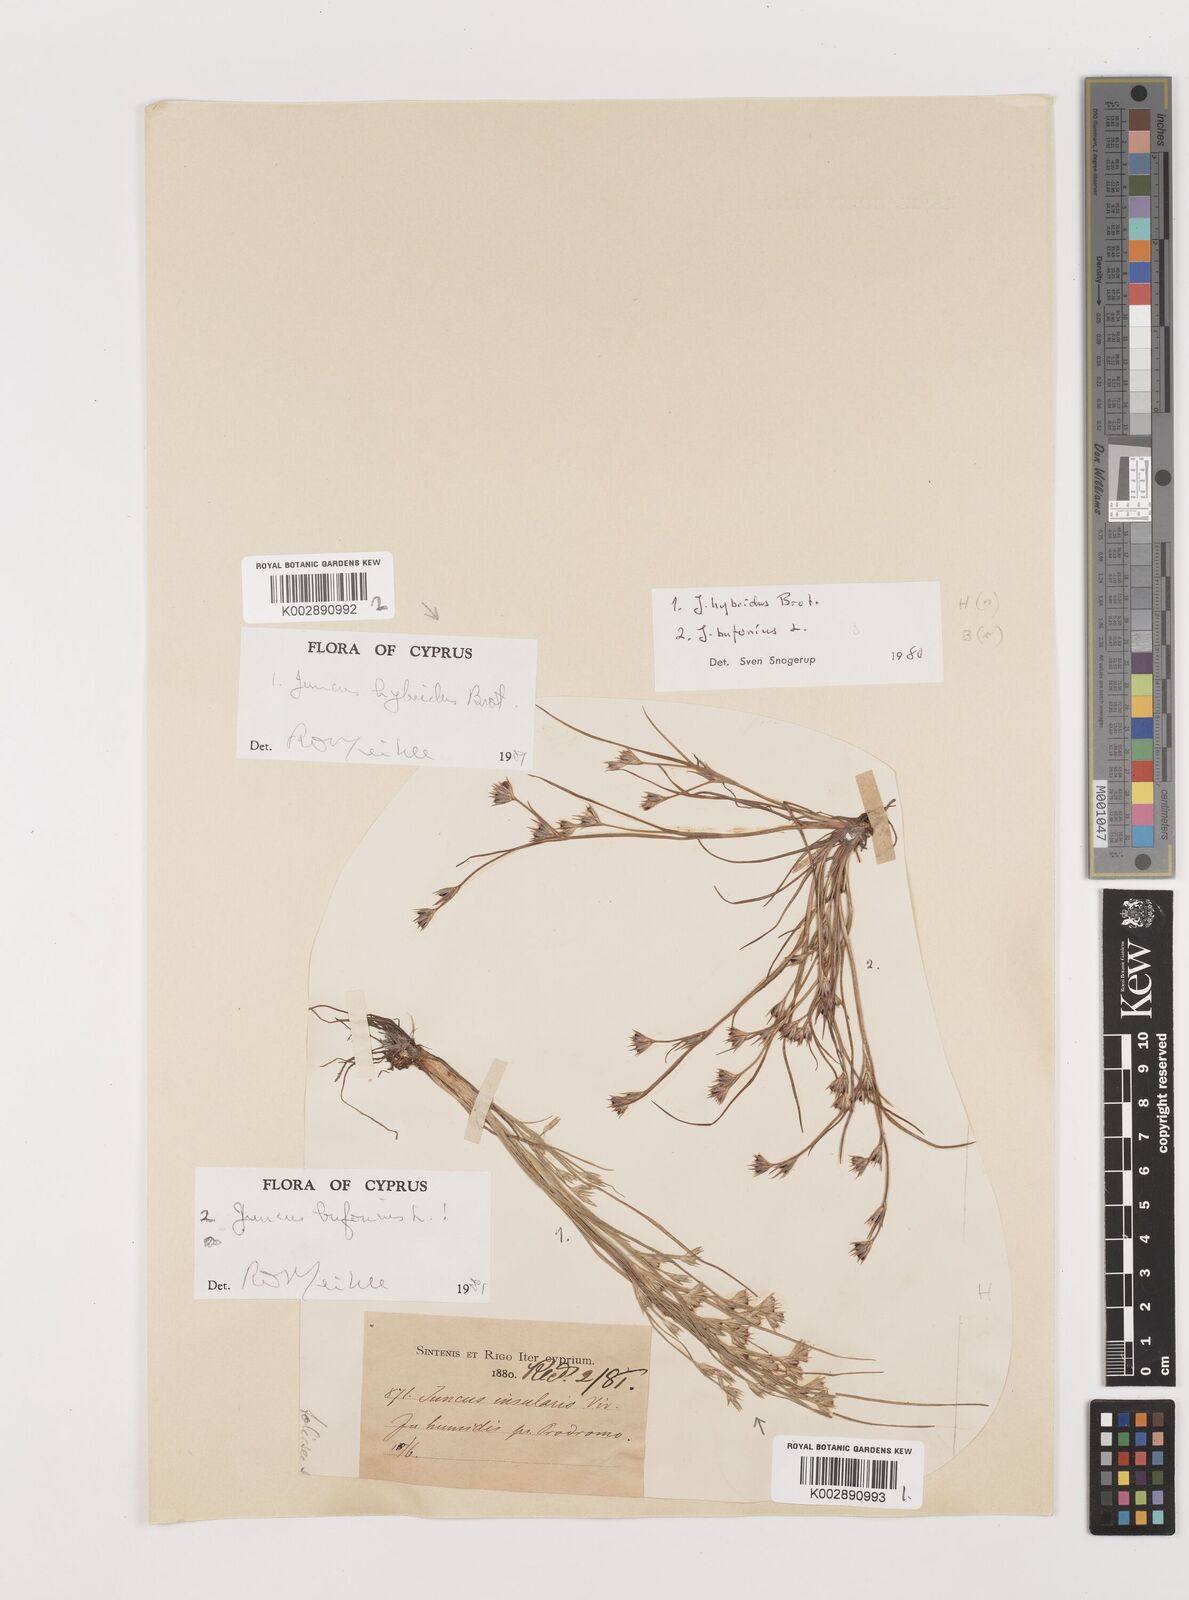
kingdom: Plantae
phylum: Tracheophyta
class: Liliopsida
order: Poales
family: Juncaceae
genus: Juncus
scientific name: Juncus bufonius
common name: Toad rush
